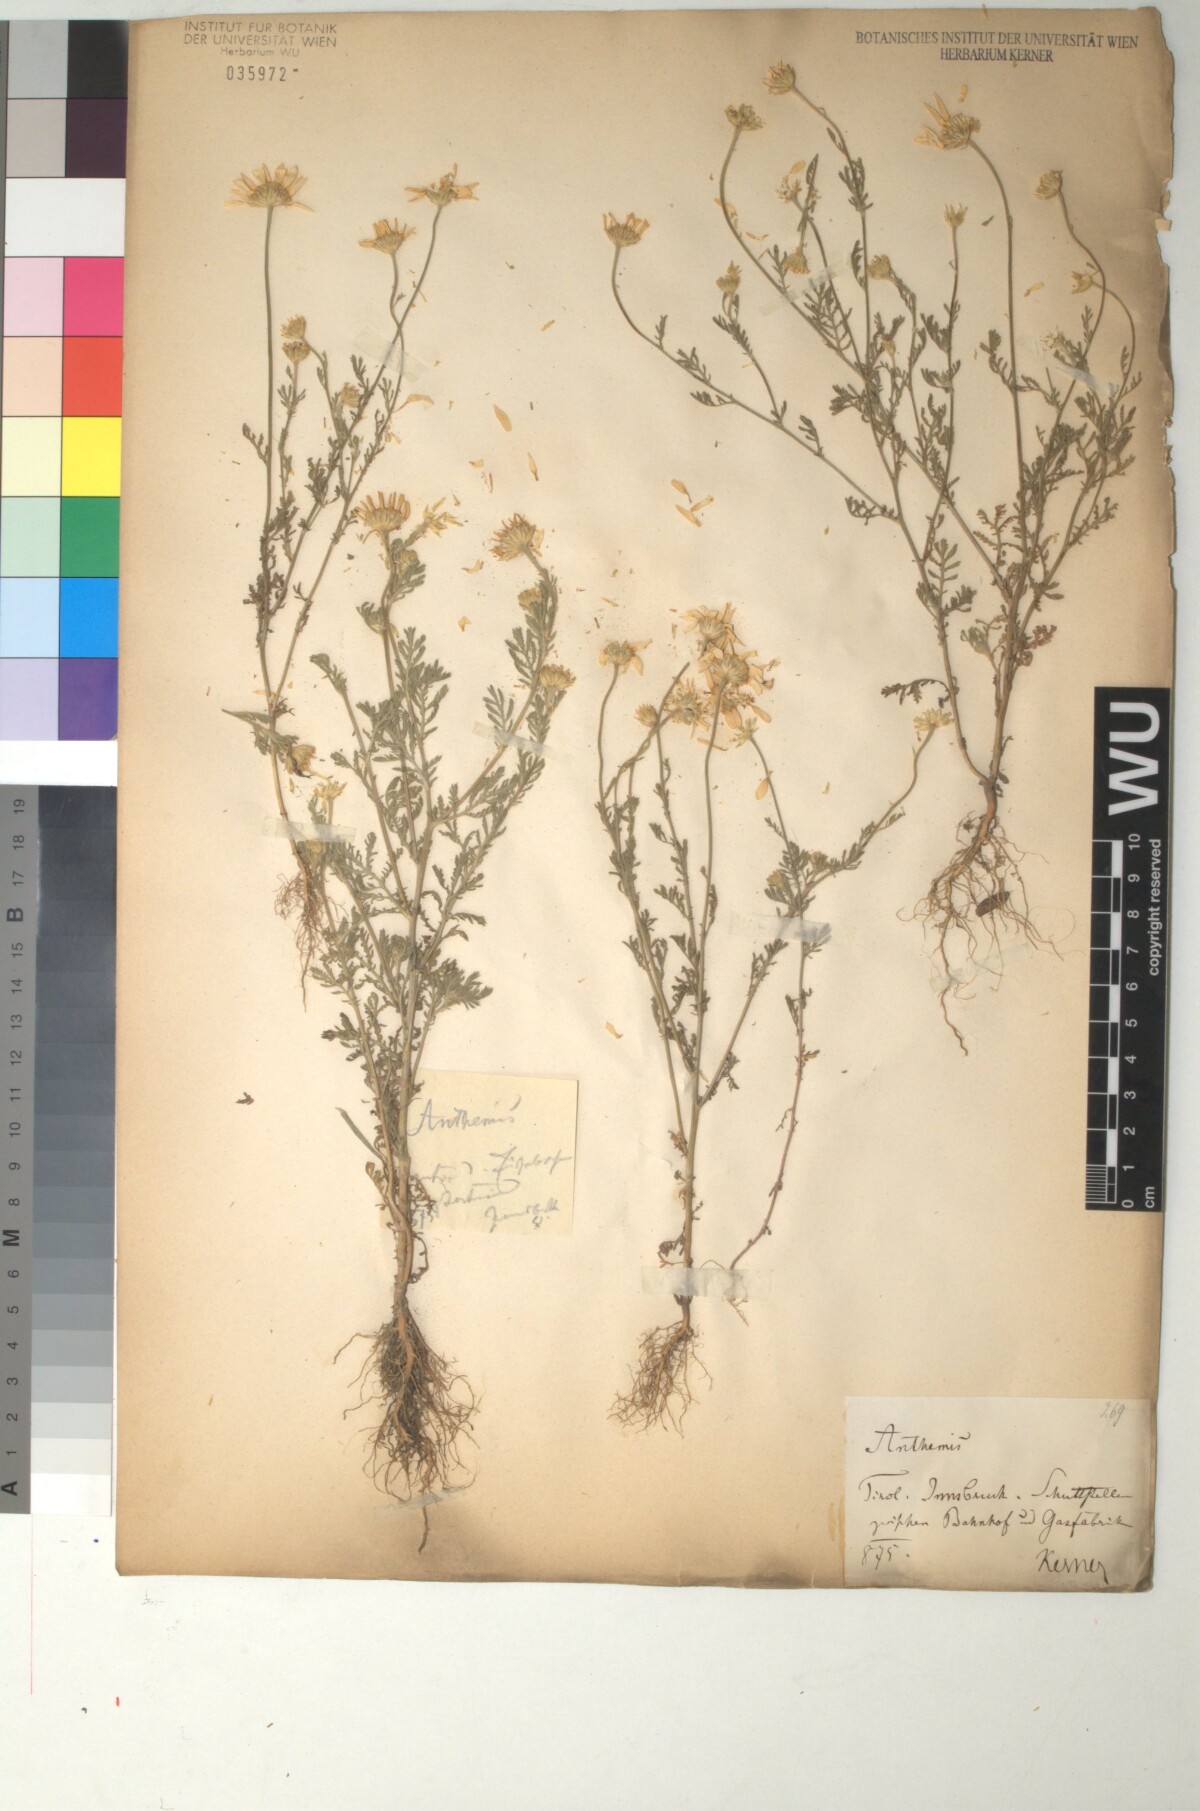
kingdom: Plantae
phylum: Tracheophyta
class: Magnoliopsida
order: Asterales
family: Asteraceae
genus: Cota
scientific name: Cota austriaca
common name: Austrian chamomile
